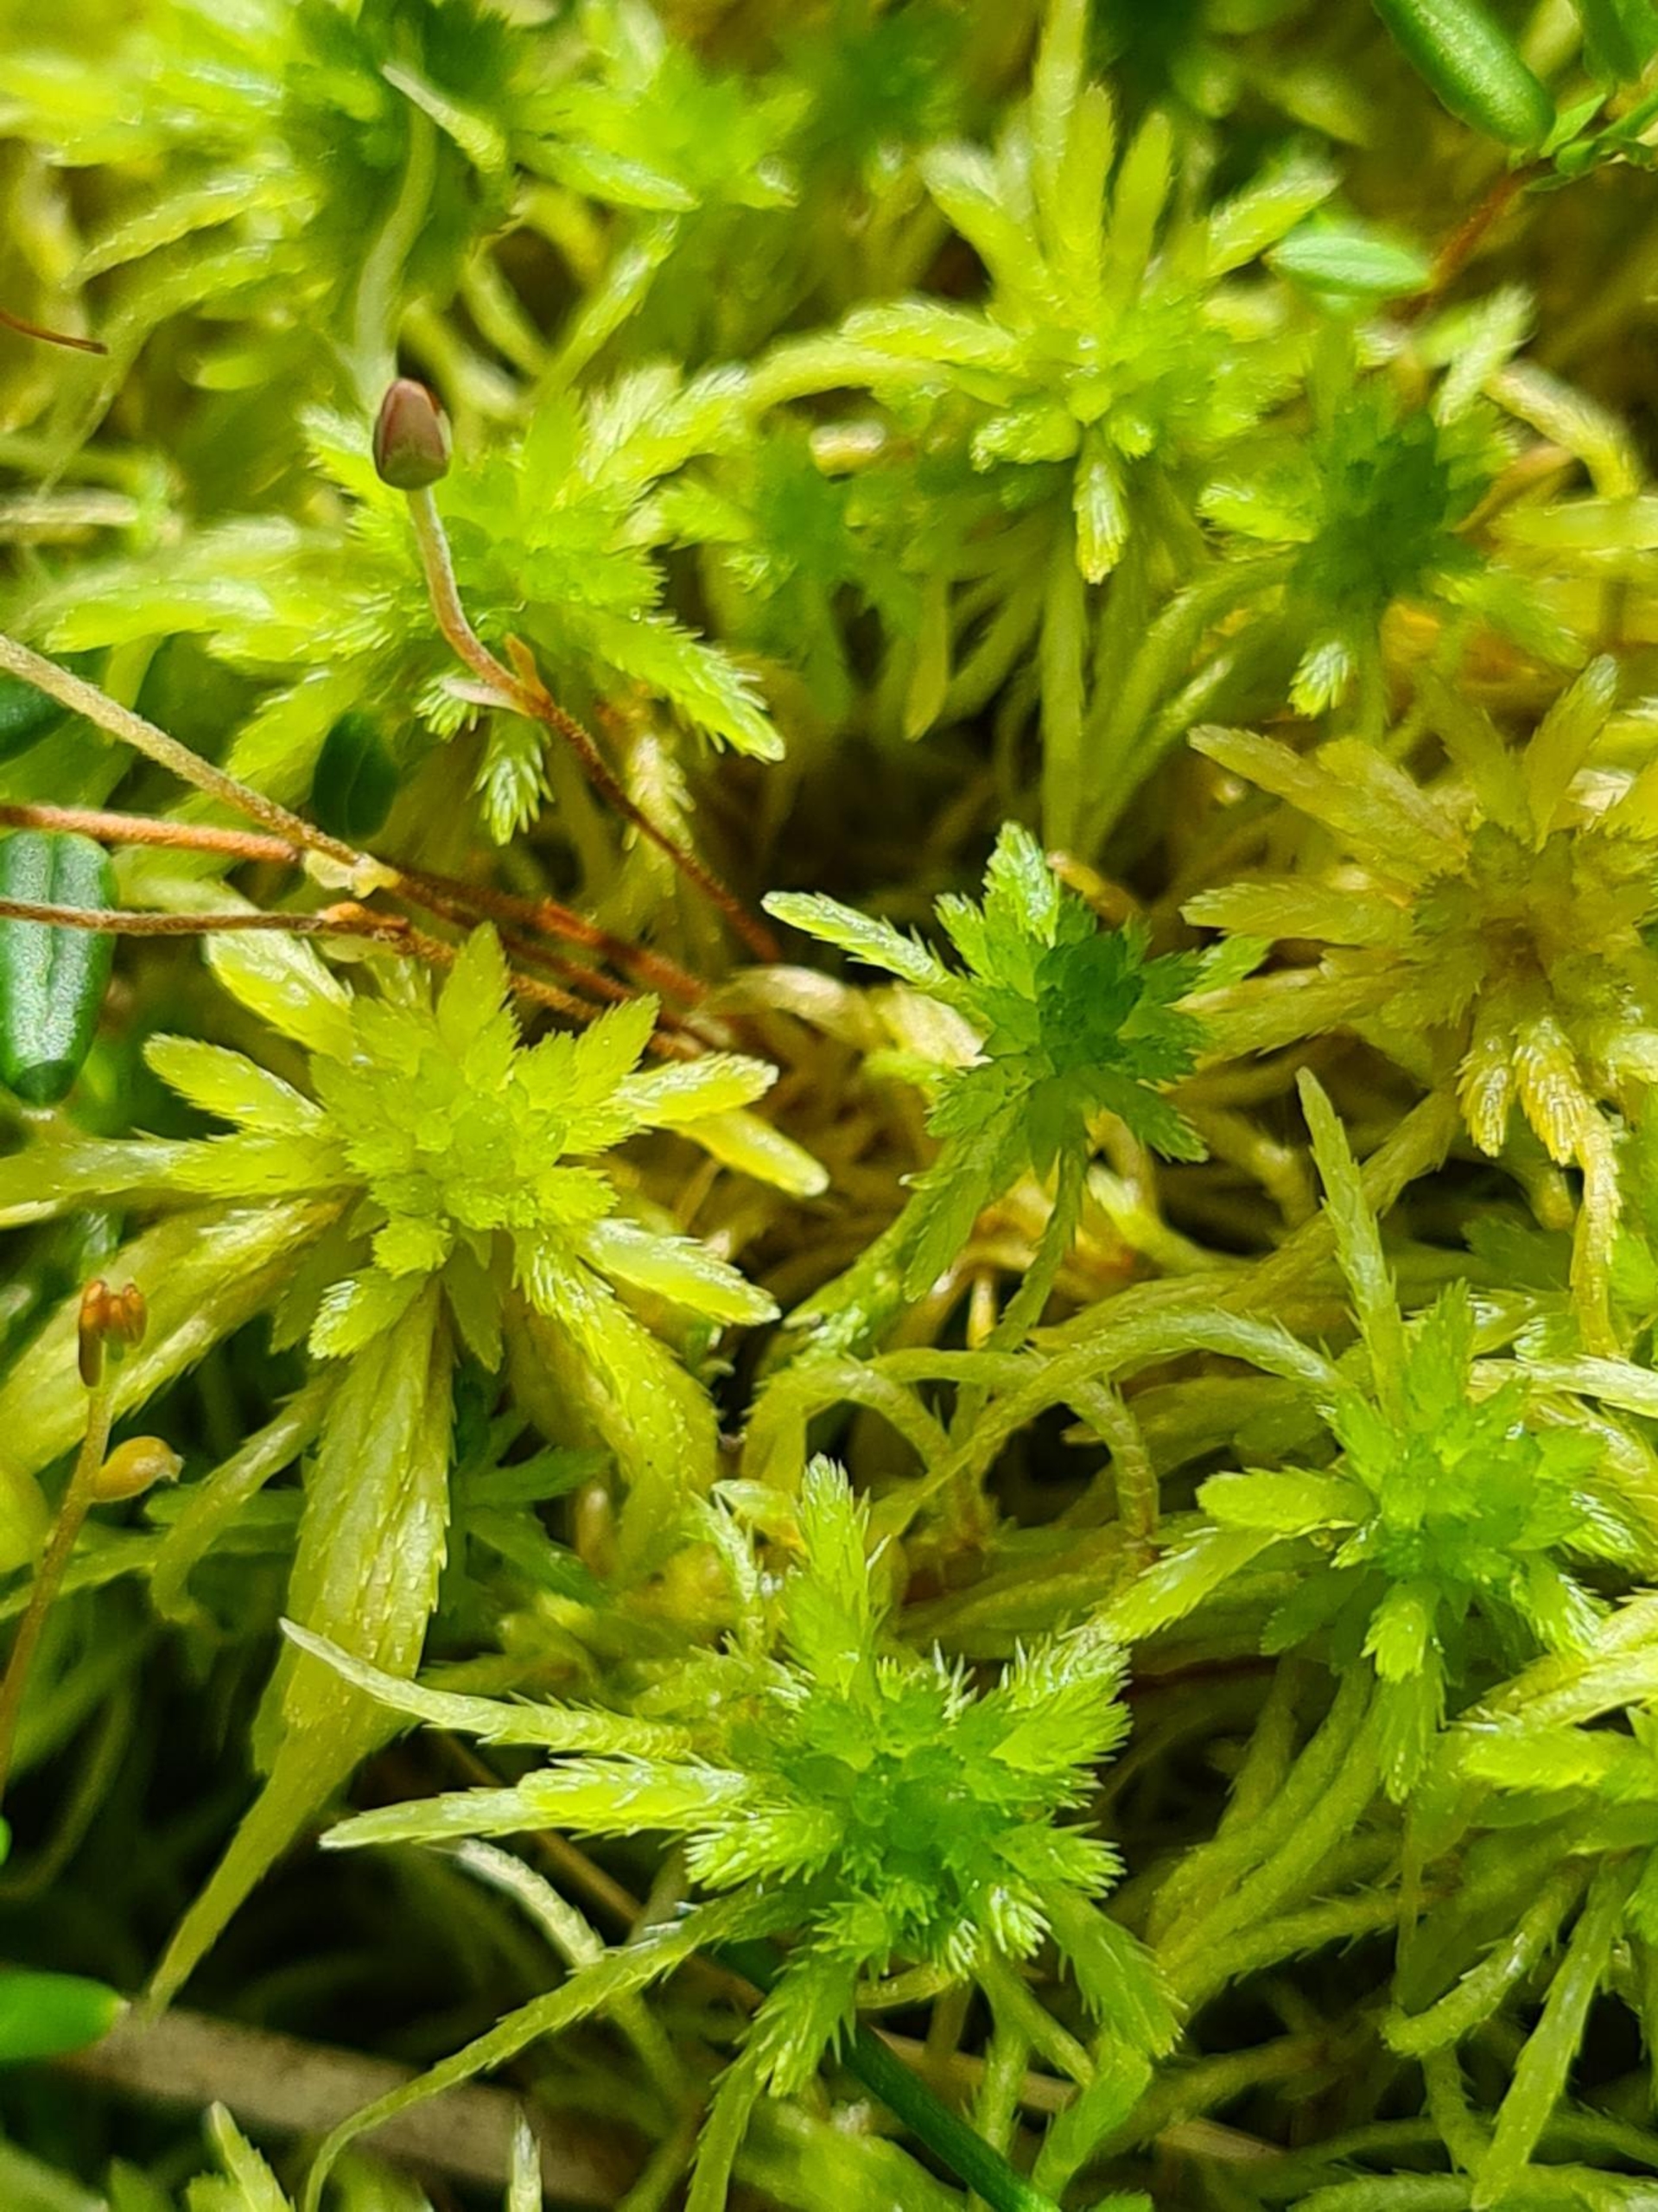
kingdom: Plantae
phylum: Bryophyta
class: Sphagnopsida
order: Sphagnales
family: Sphagnaceae
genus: Sphagnum
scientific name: Sphagnum teres
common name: Trindgrenet tørvemos
